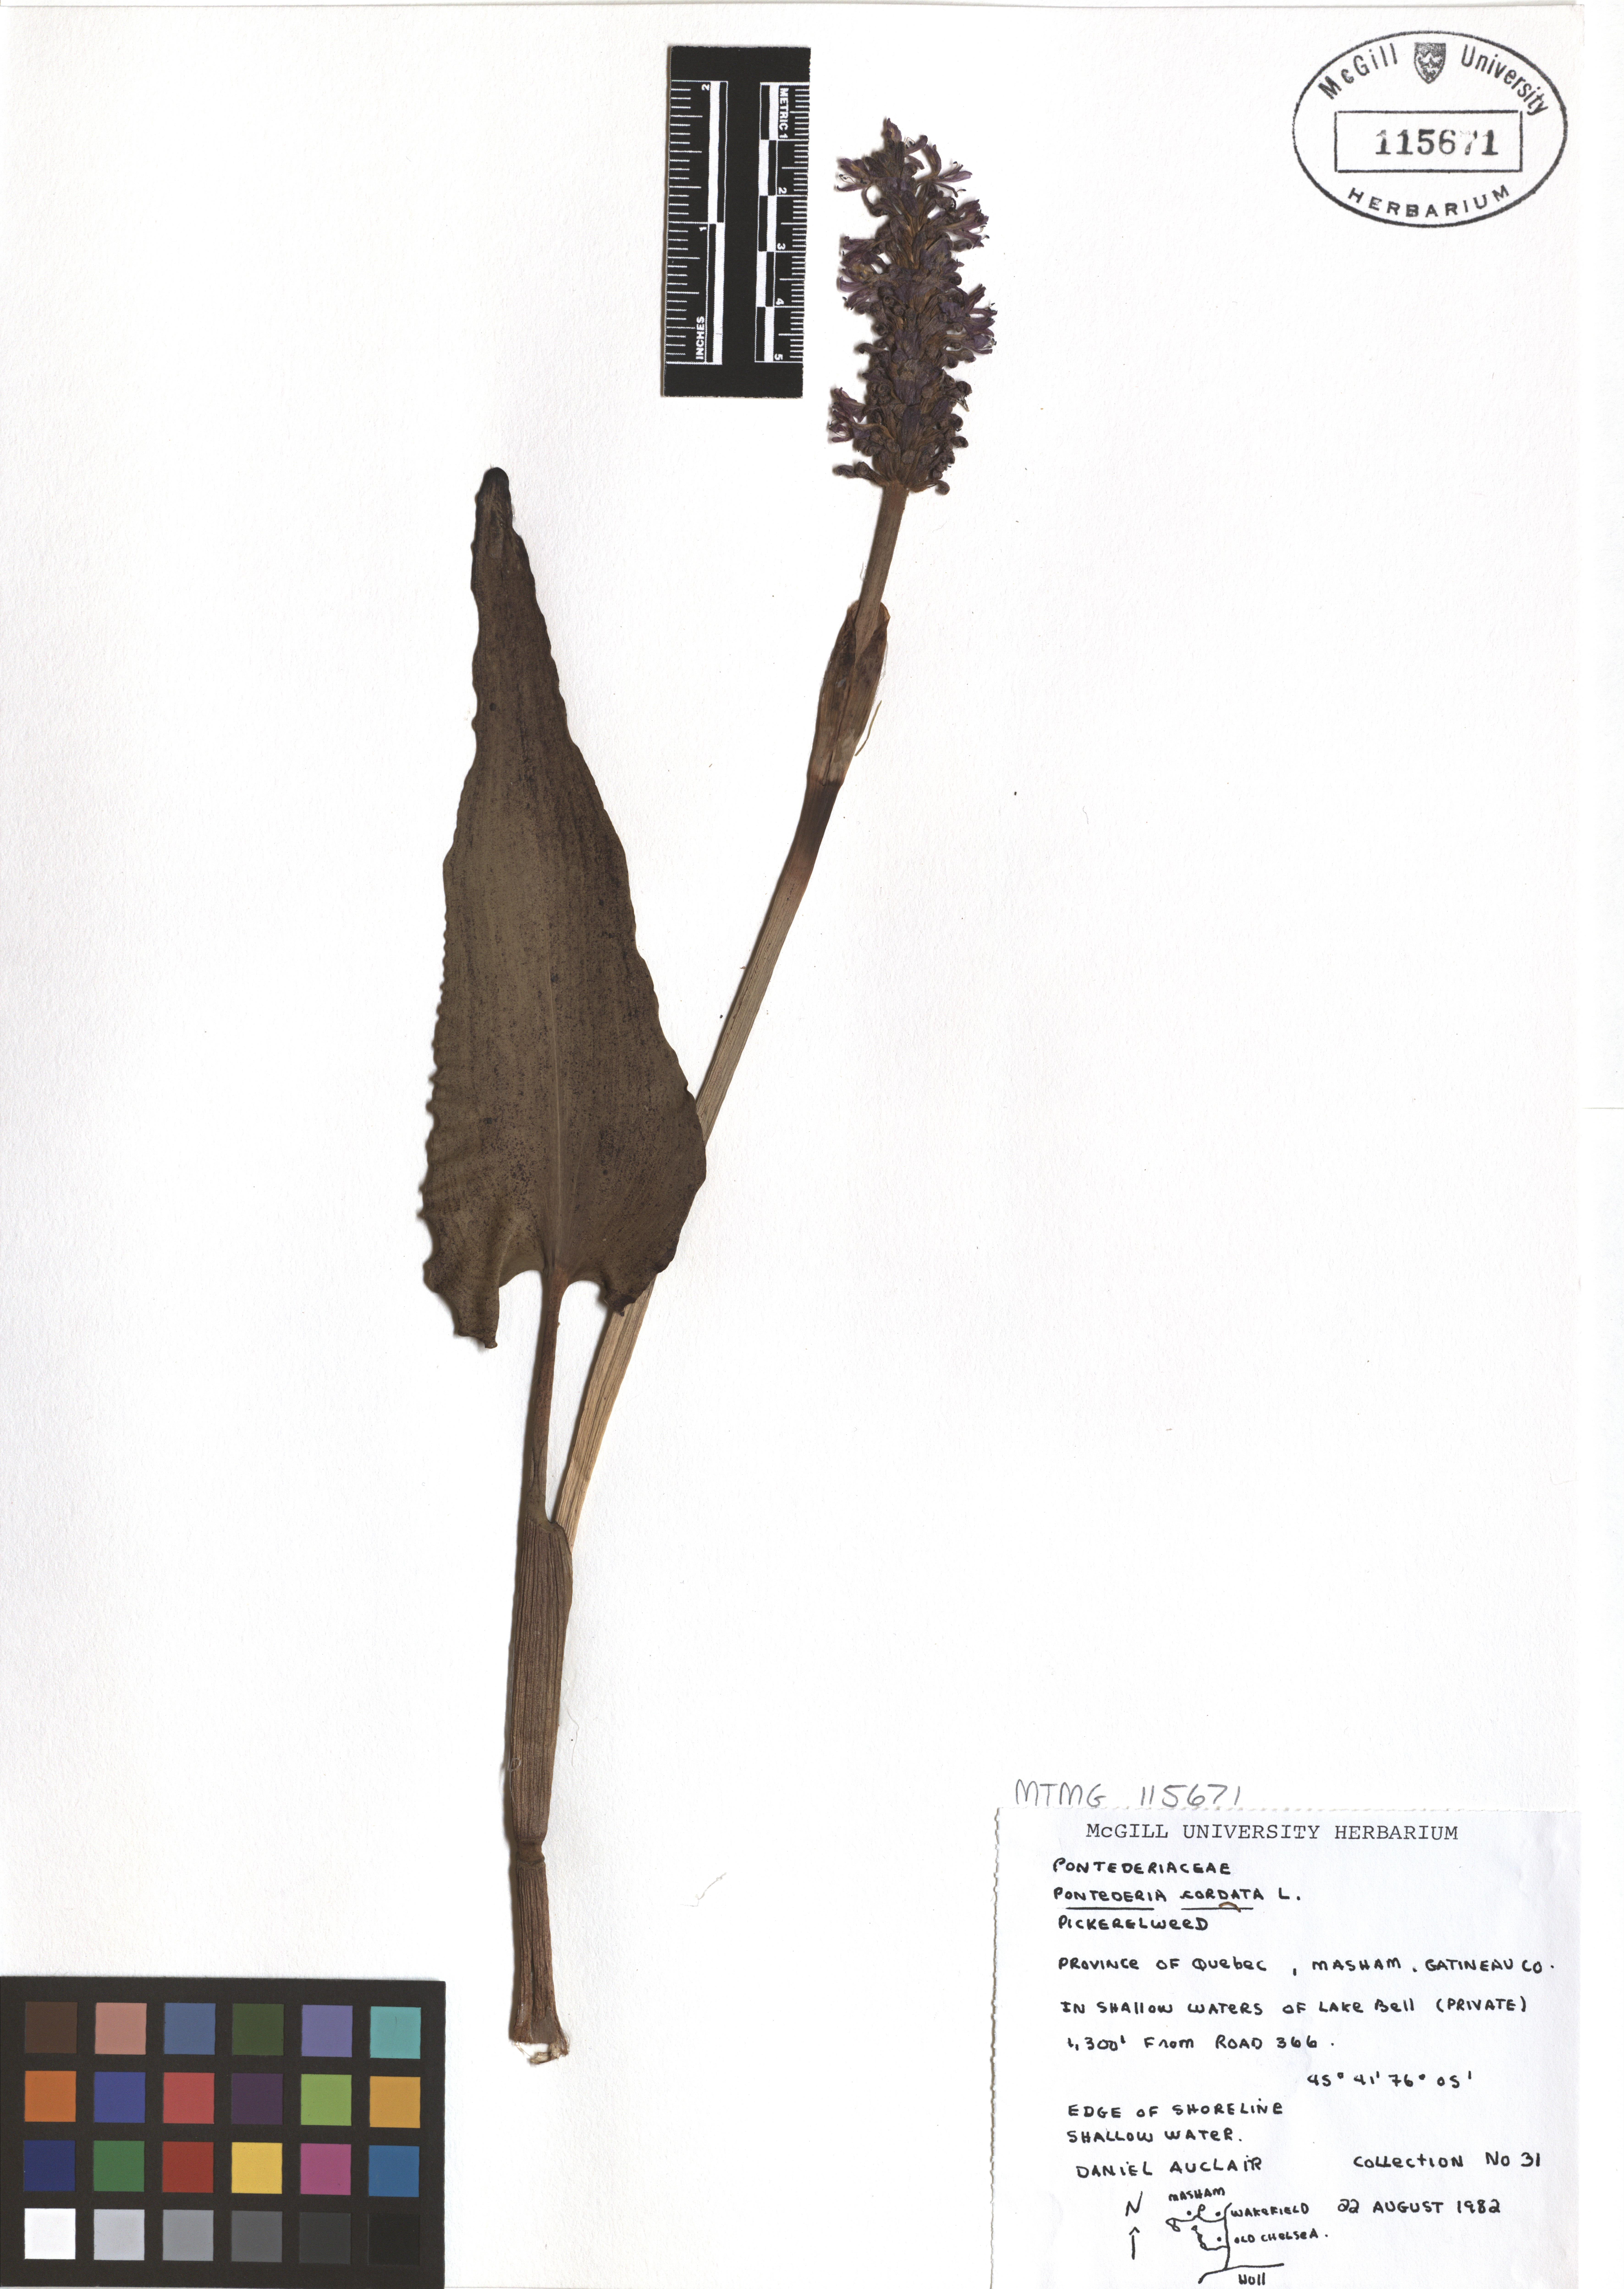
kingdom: Plantae
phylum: Tracheophyta
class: Liliopsida
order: Commelinales
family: Pontederiaceae
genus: Pontederia
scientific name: Pontederia cordata
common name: Pickerelweed
